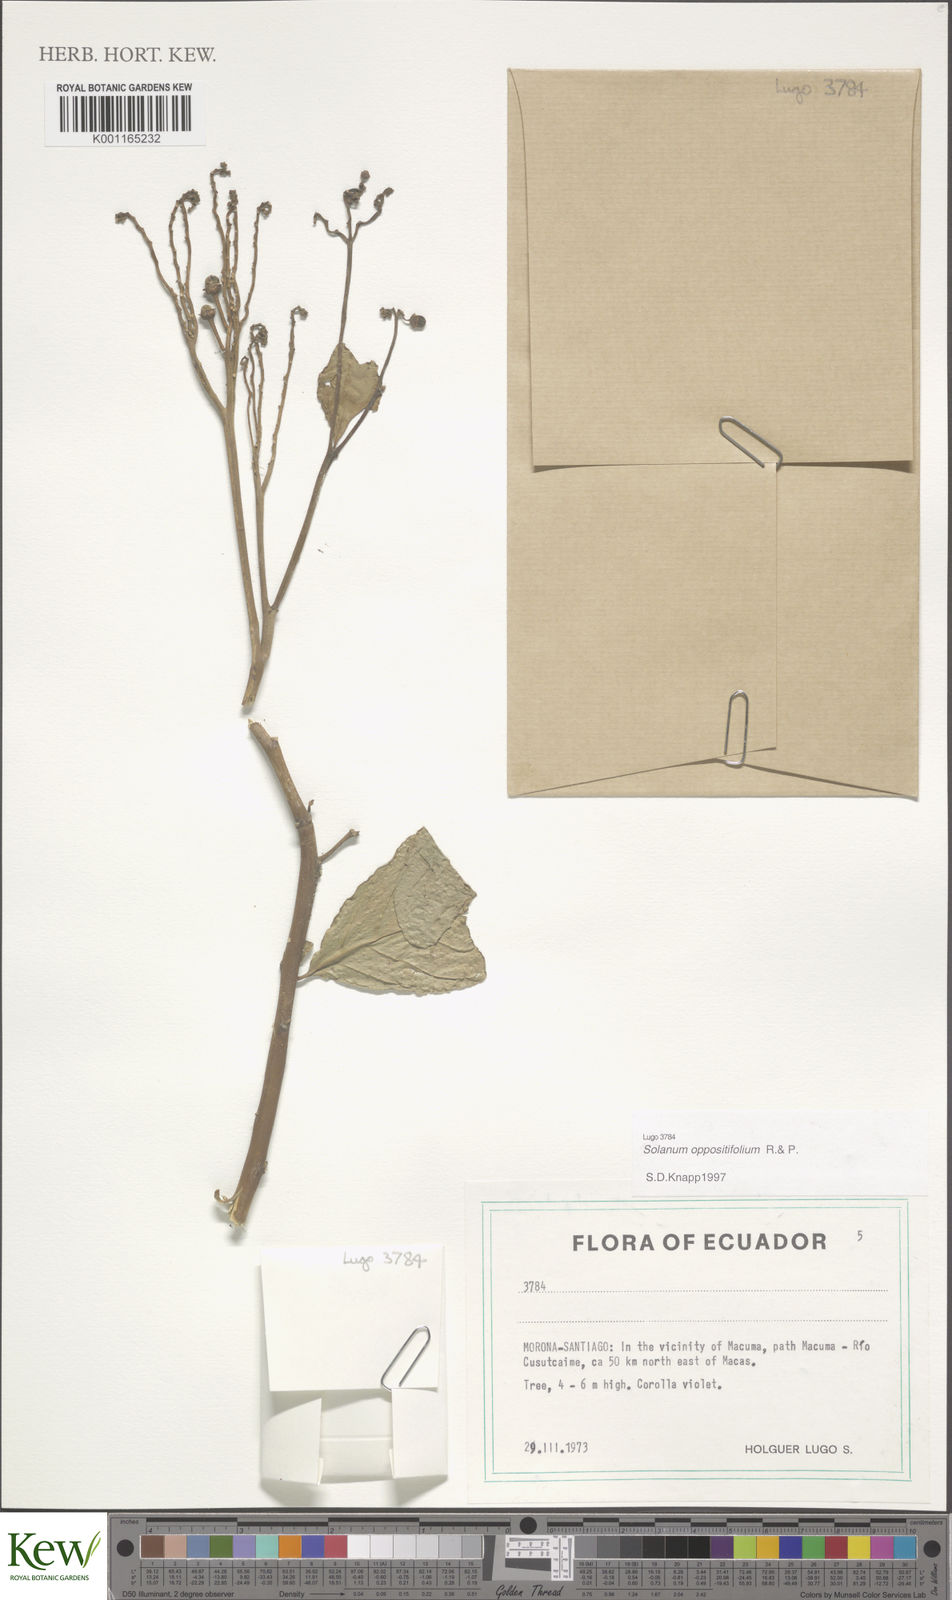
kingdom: Plantae
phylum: Tracheophyta
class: Magnoliopsida
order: Solanales
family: Solanaceae
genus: Solanum
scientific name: Solanum oppositifolium
